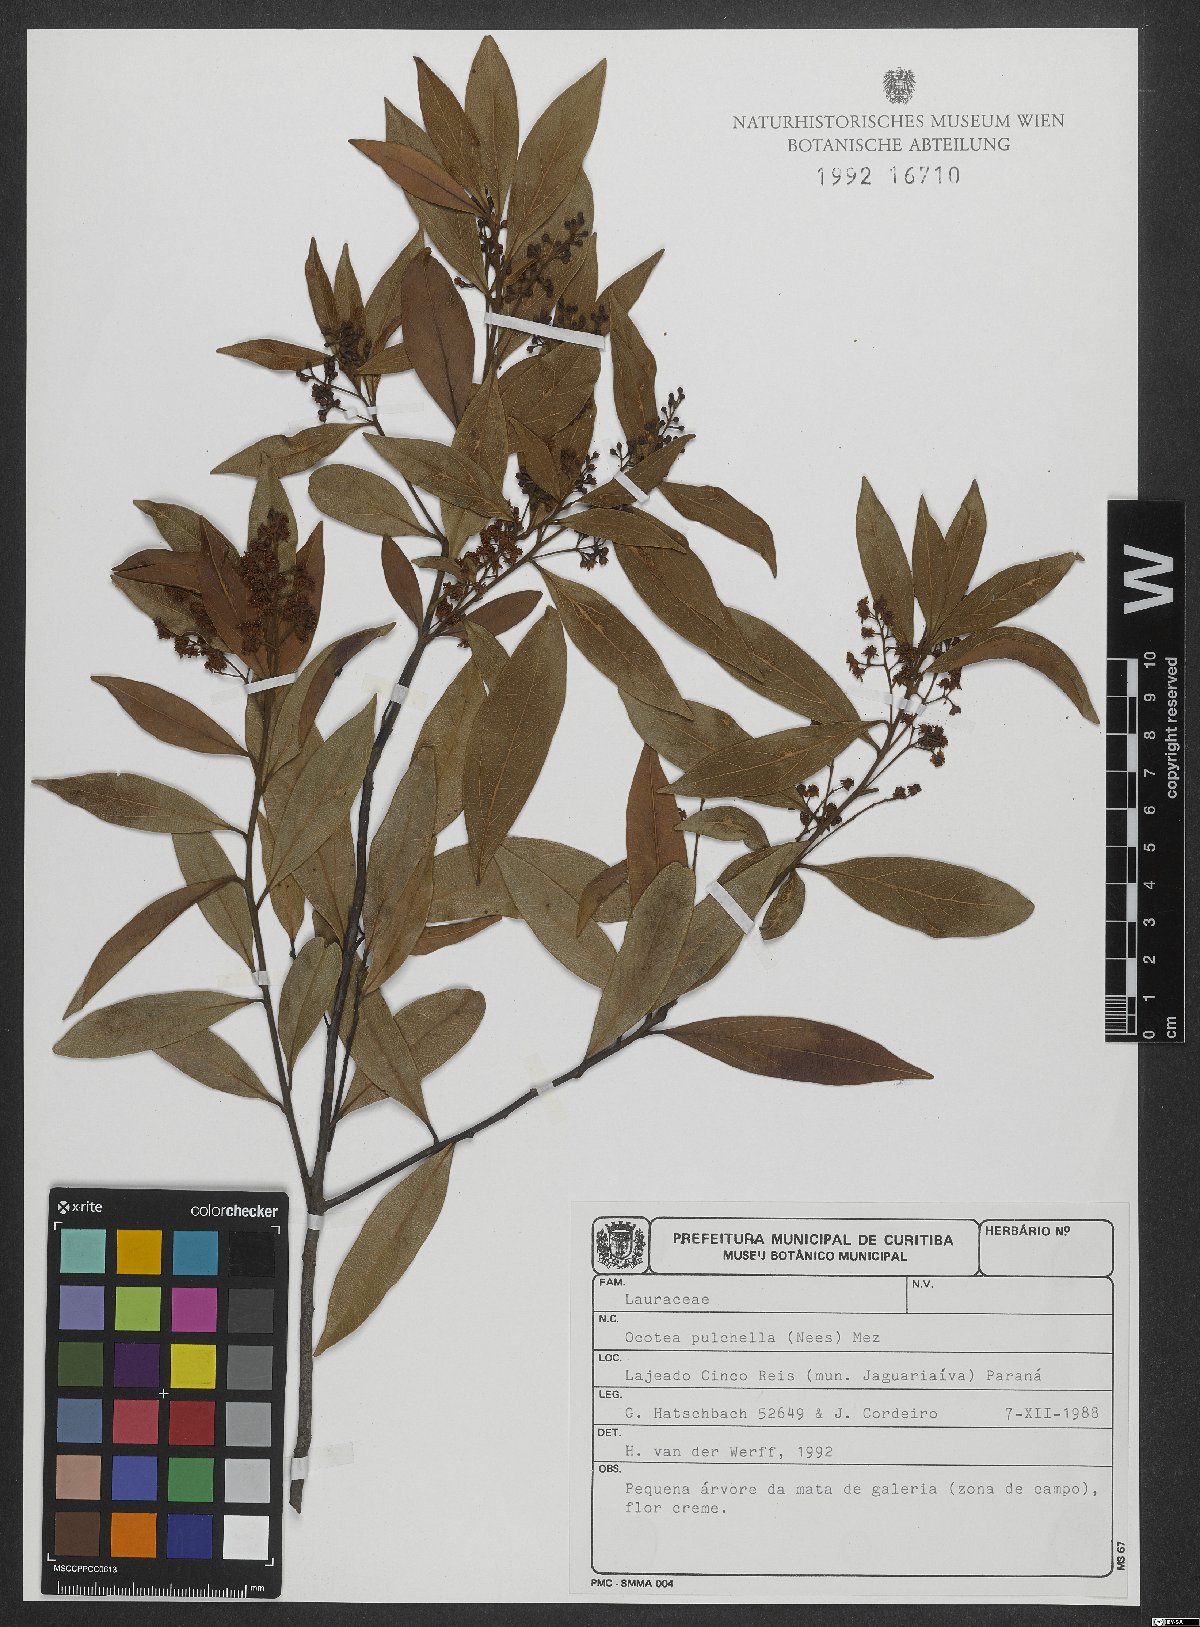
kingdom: Plantae
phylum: Tracheophyta
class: Magnoliopsida
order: Laurales
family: Lauraceae
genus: Mespilodaphne
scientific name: Mespilodaphne pulchella
